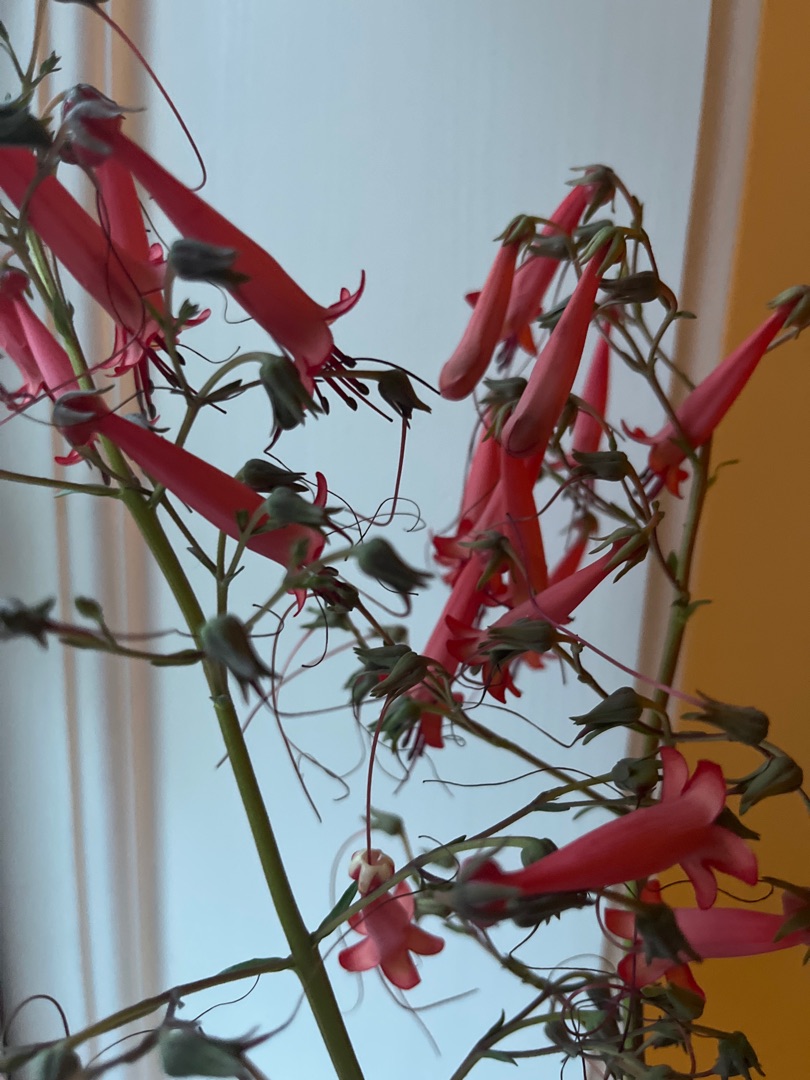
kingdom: Plantae
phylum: Tracheophyta
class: Magnoliopsida
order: Myrtales
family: Onagraceae
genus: Fuchsia
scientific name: Fuchsia
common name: Fuchsiaslægten
